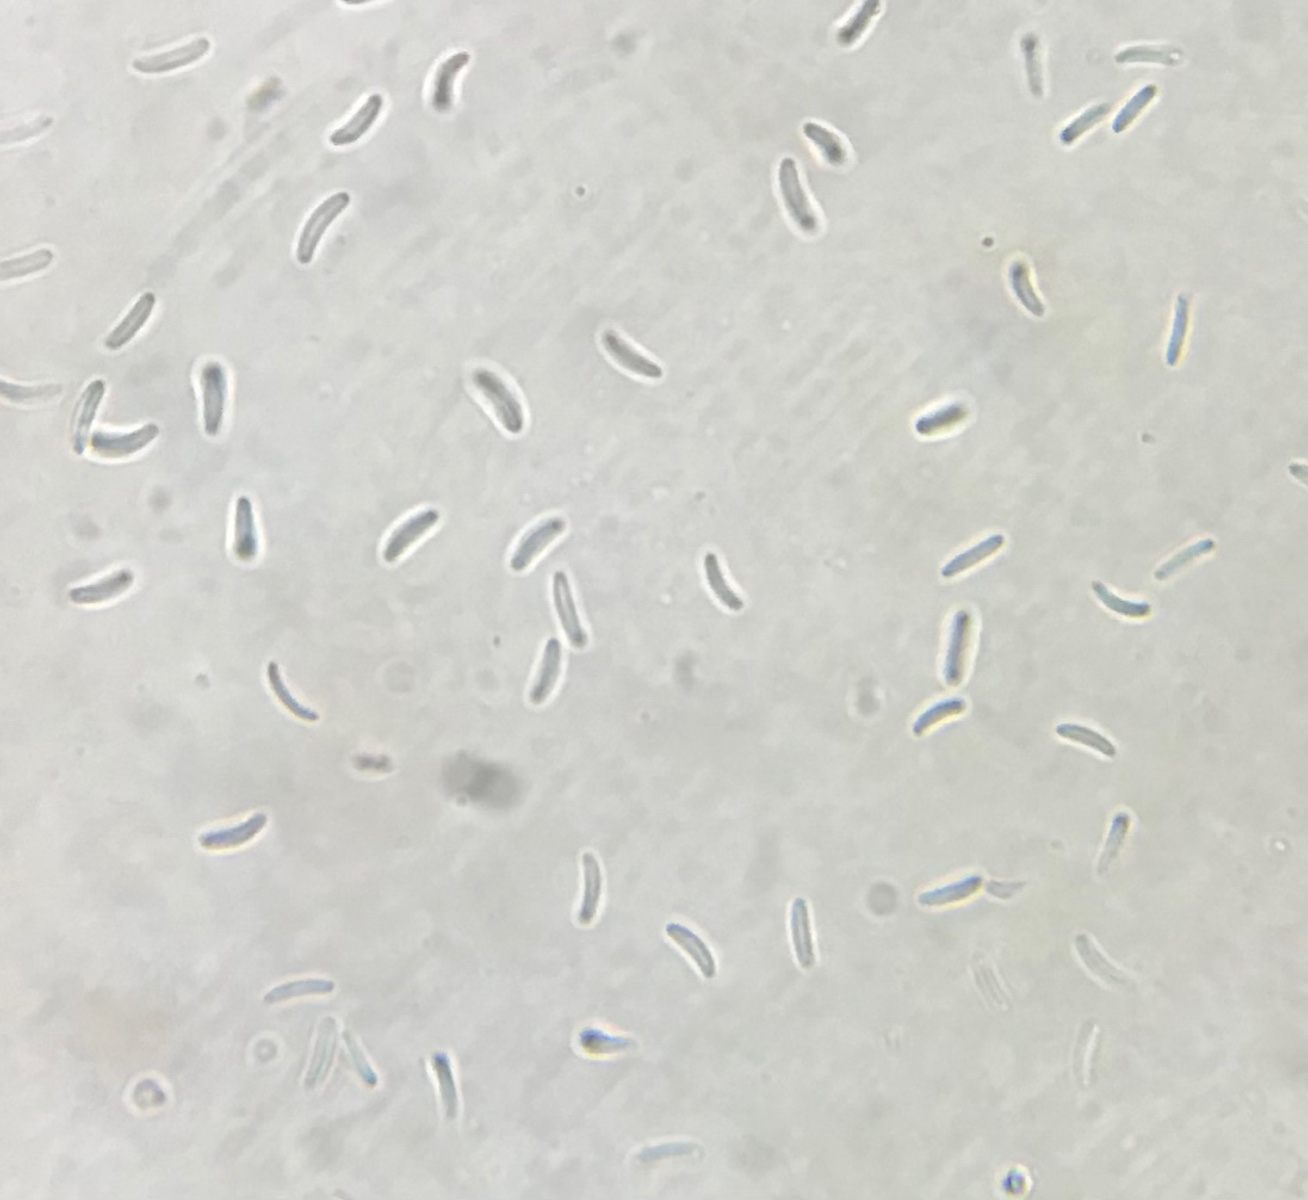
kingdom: Fungi
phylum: Ascomycota
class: Sordariomycetes
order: Diaporthales
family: Valsaceae
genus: Cytospora
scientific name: Cytospora platani
